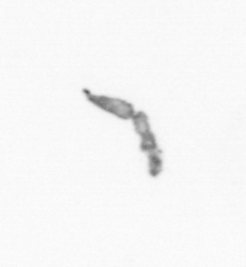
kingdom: Chromista
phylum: Ochrophyta
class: Bacillariophyceae
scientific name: Bacillariophyceae
